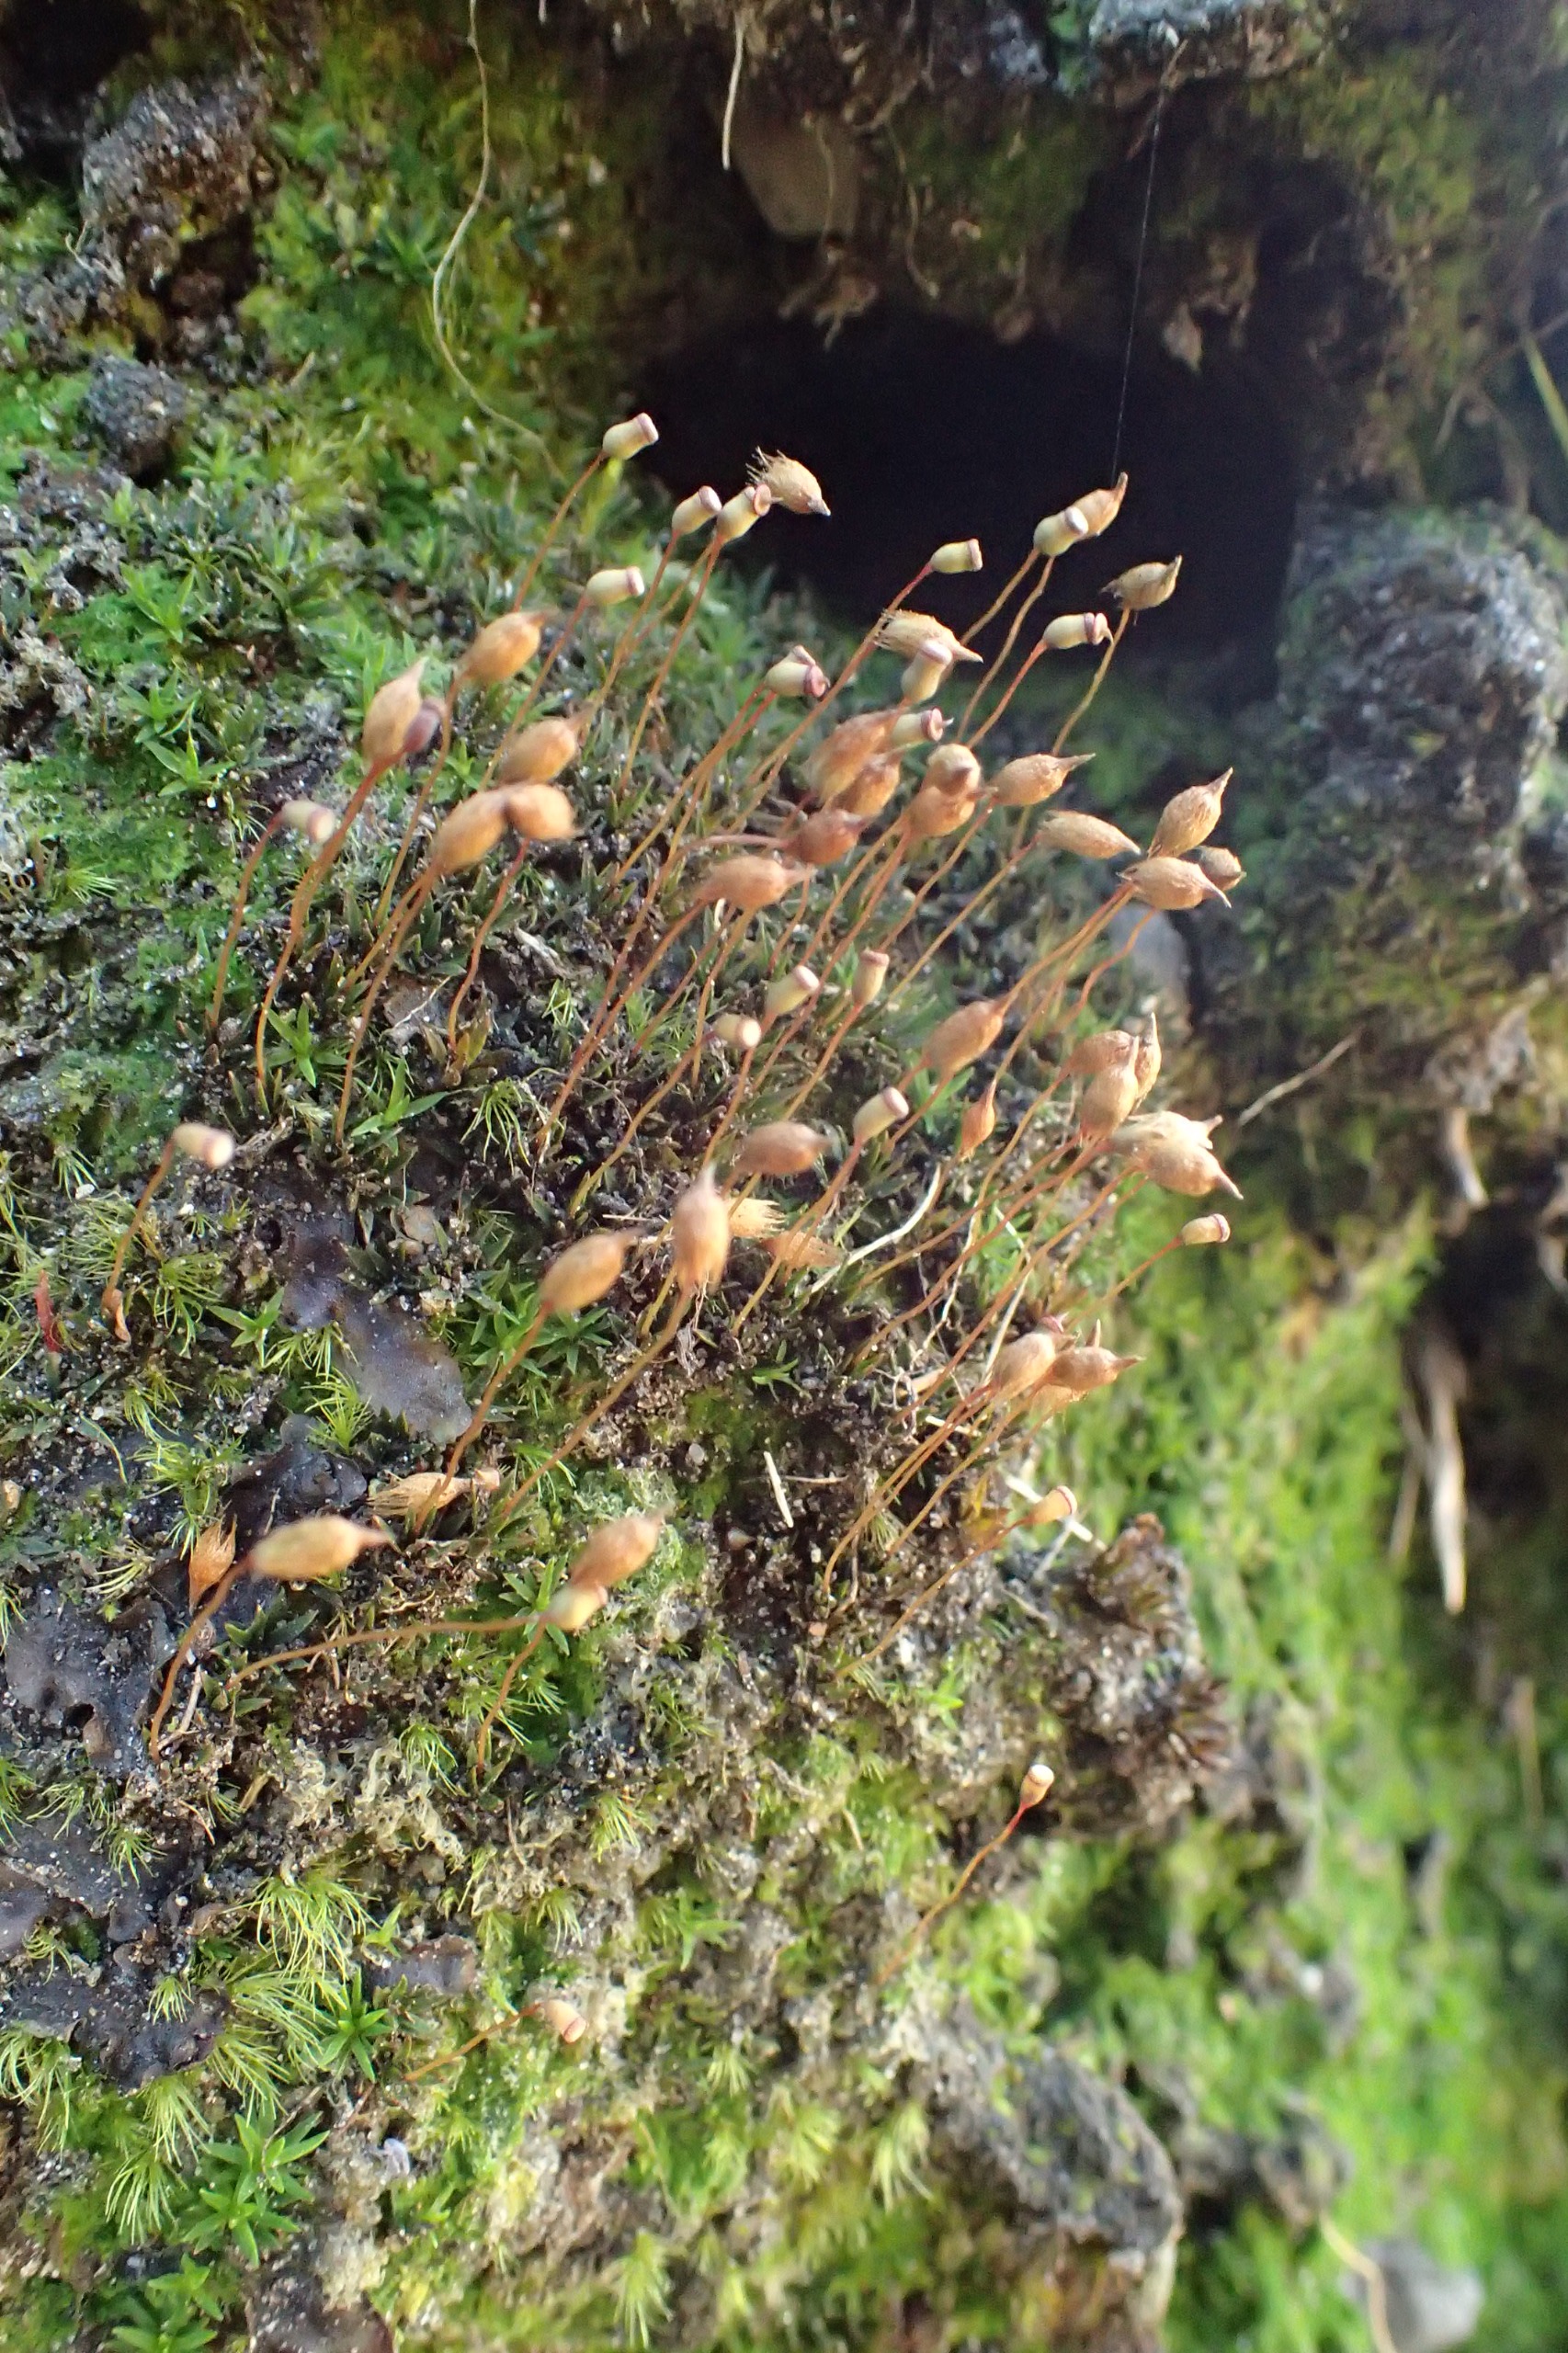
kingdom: Plantae
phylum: Bryophyta
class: Polytrichopsida
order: Polytrichales
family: Polytrichaceae
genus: Pogonatum
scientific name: Pogonatum nanum
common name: Dværg-urnekapsel
